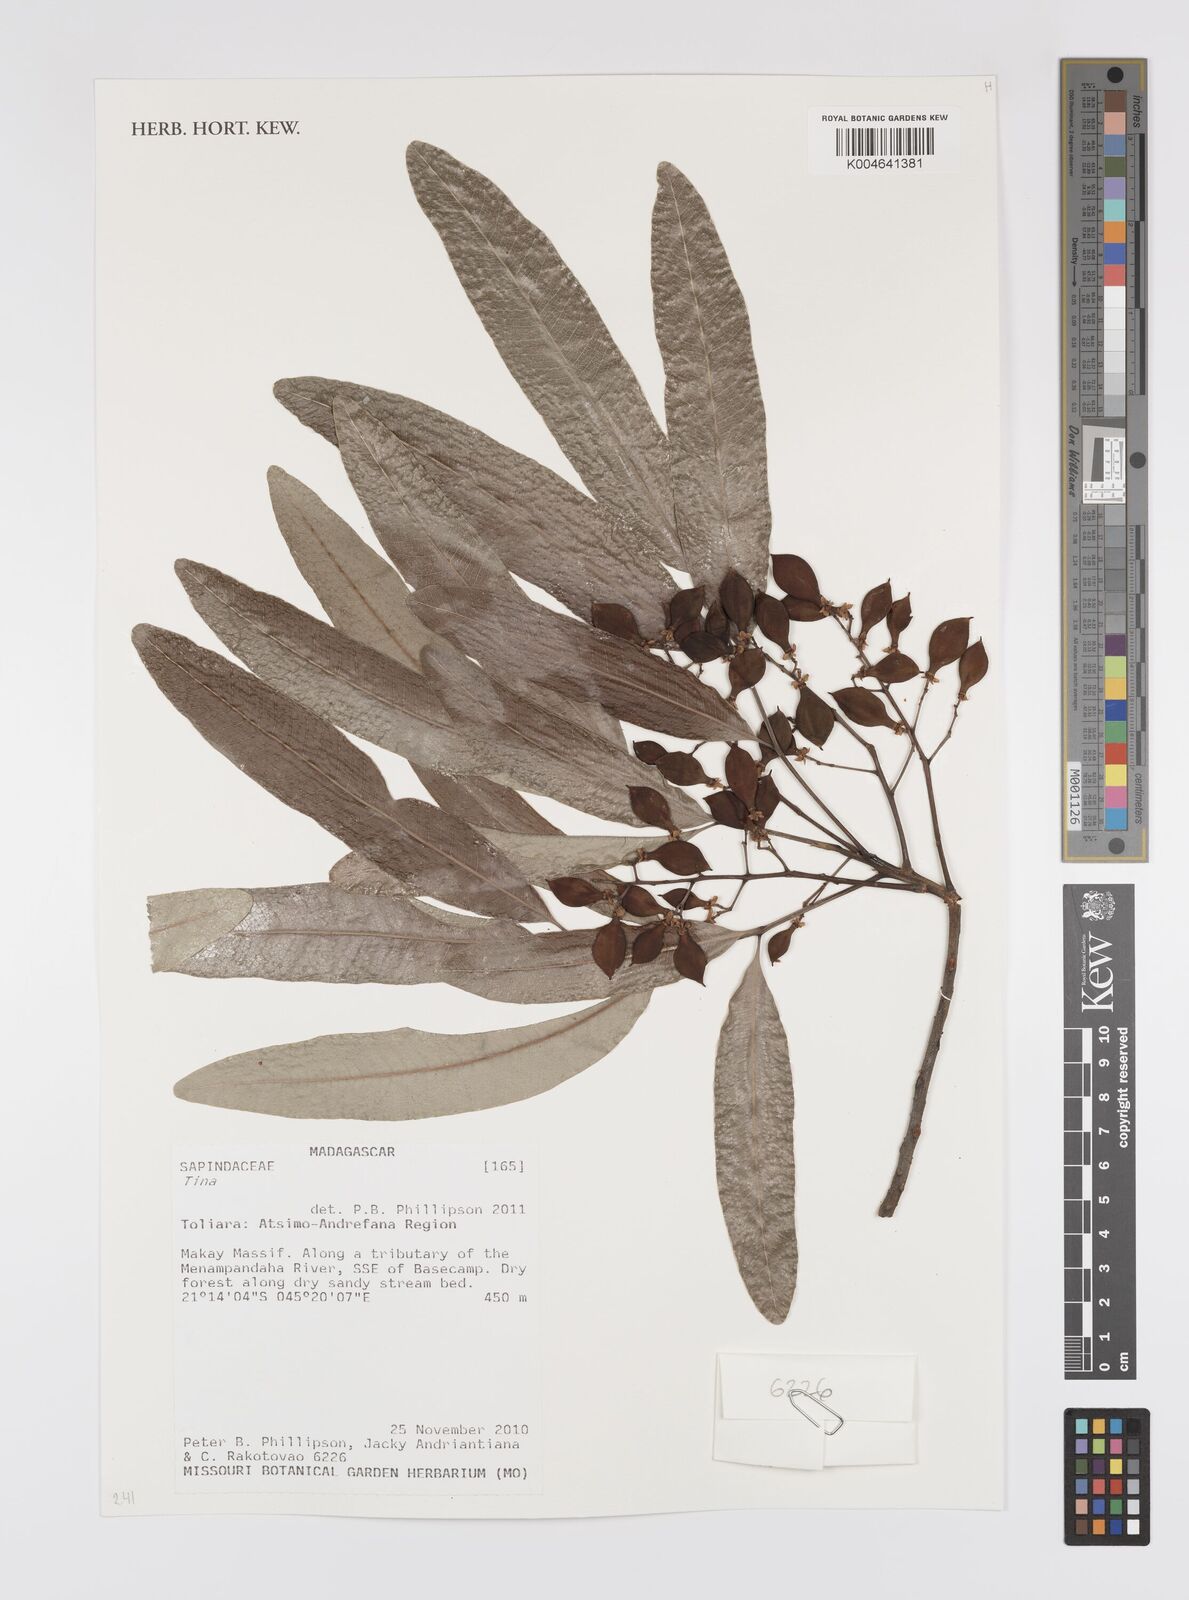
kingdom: Plantae
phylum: Tracheophyta
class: Magnoliopsida
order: Sapindales
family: Sapindaceae
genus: Tina
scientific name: Tina
